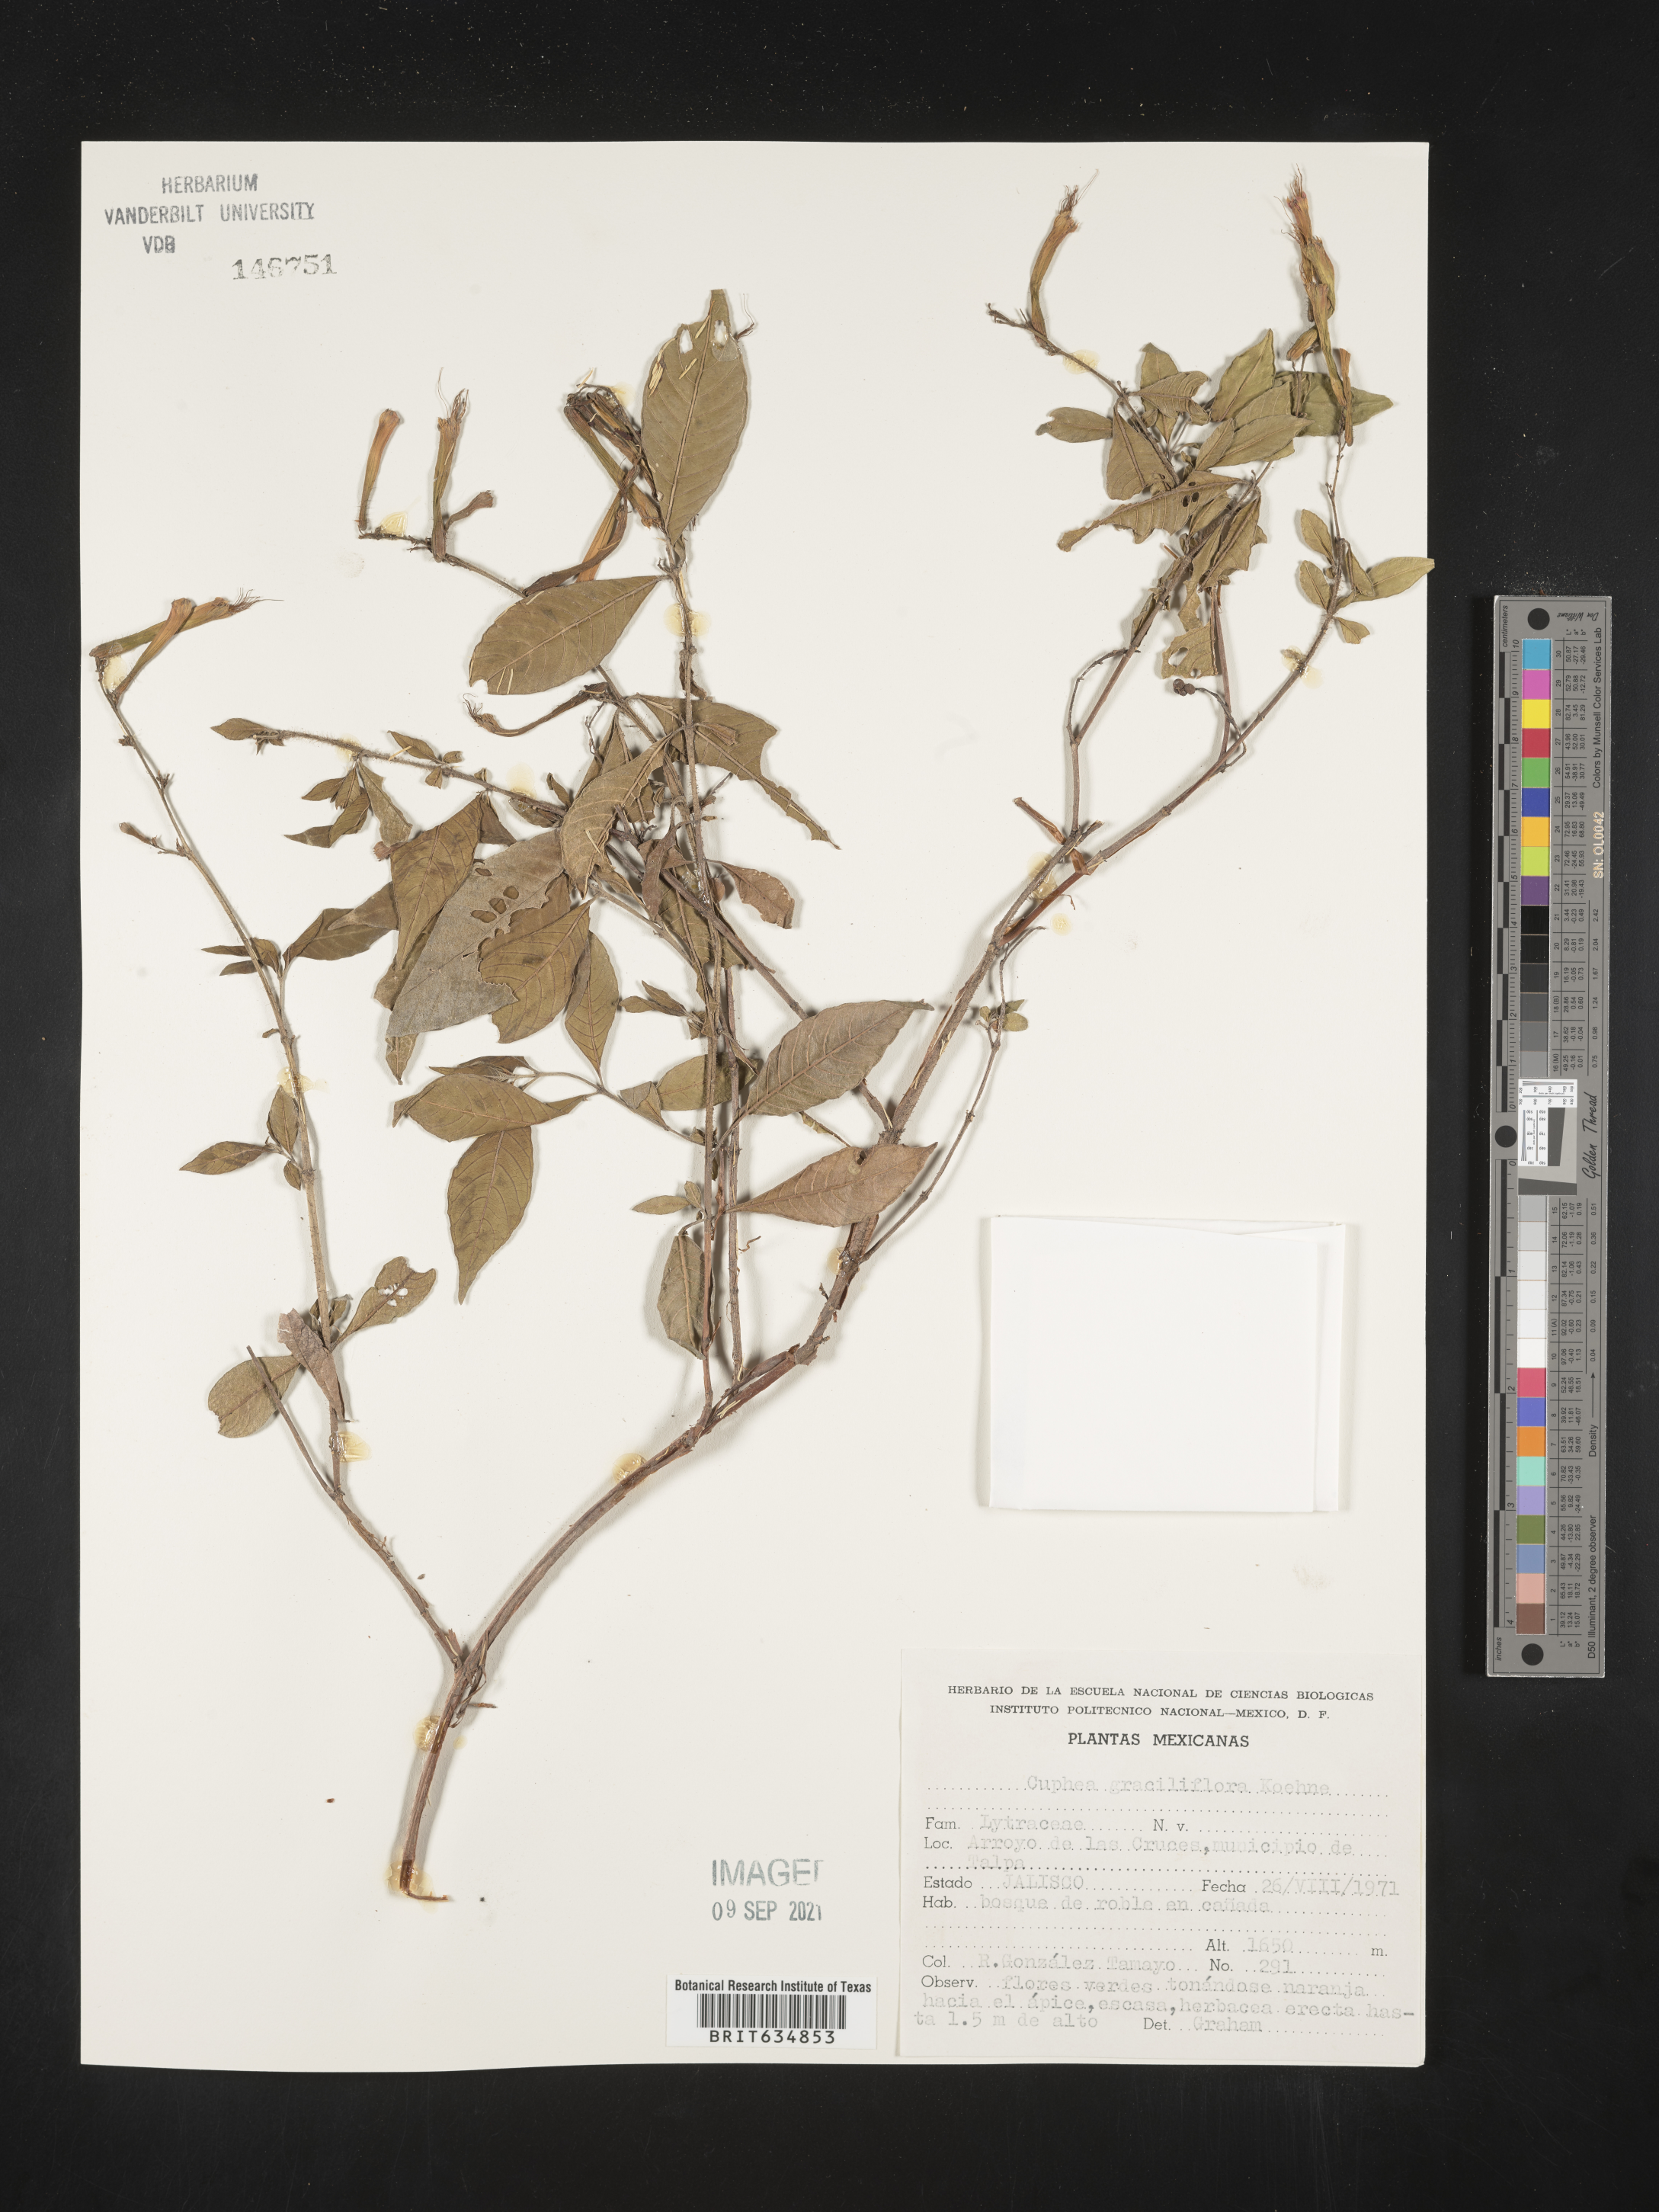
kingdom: Plantae
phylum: Tracheophyta
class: Magnoliopsida
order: Myrtales
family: Lythraceae
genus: Cuphea
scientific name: Cuphea
